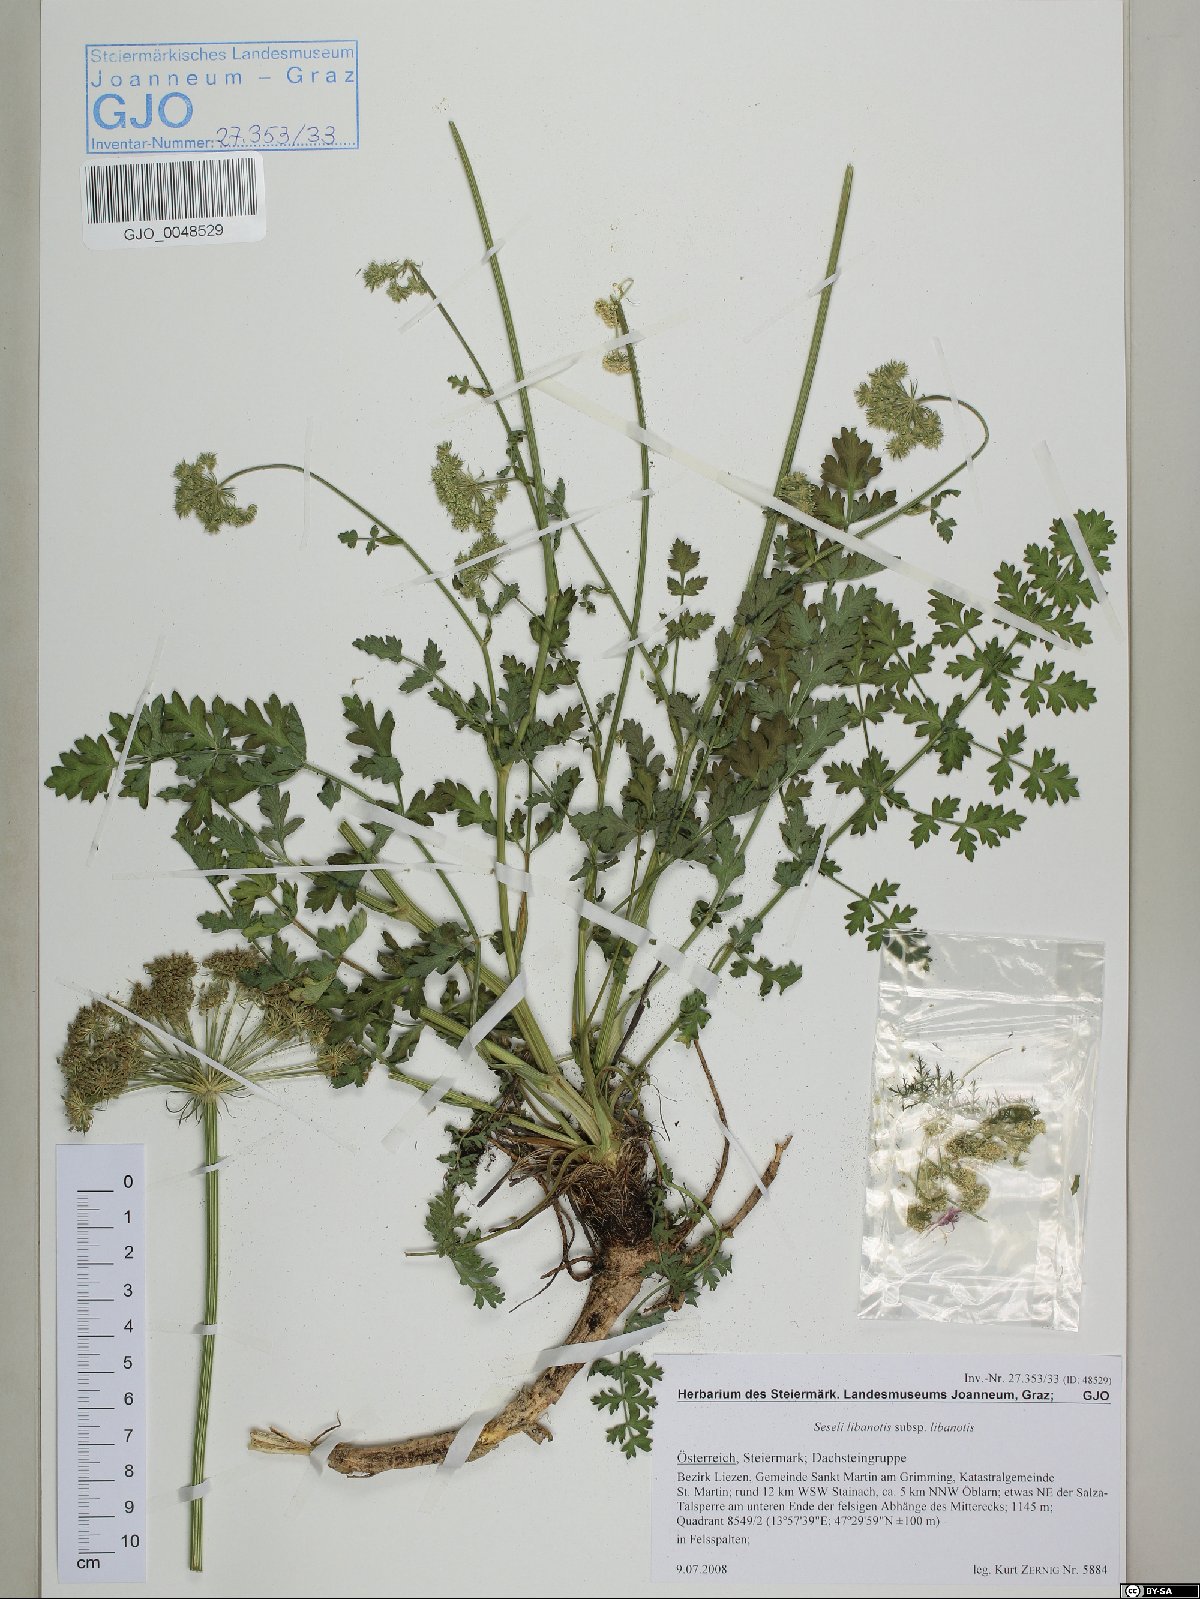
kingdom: Plantae
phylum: Tracheophyta
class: Magnoliopsida
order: Apiales
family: Apiaceae
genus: Seseli
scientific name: Seseli libanotis
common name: Mooncarrot
